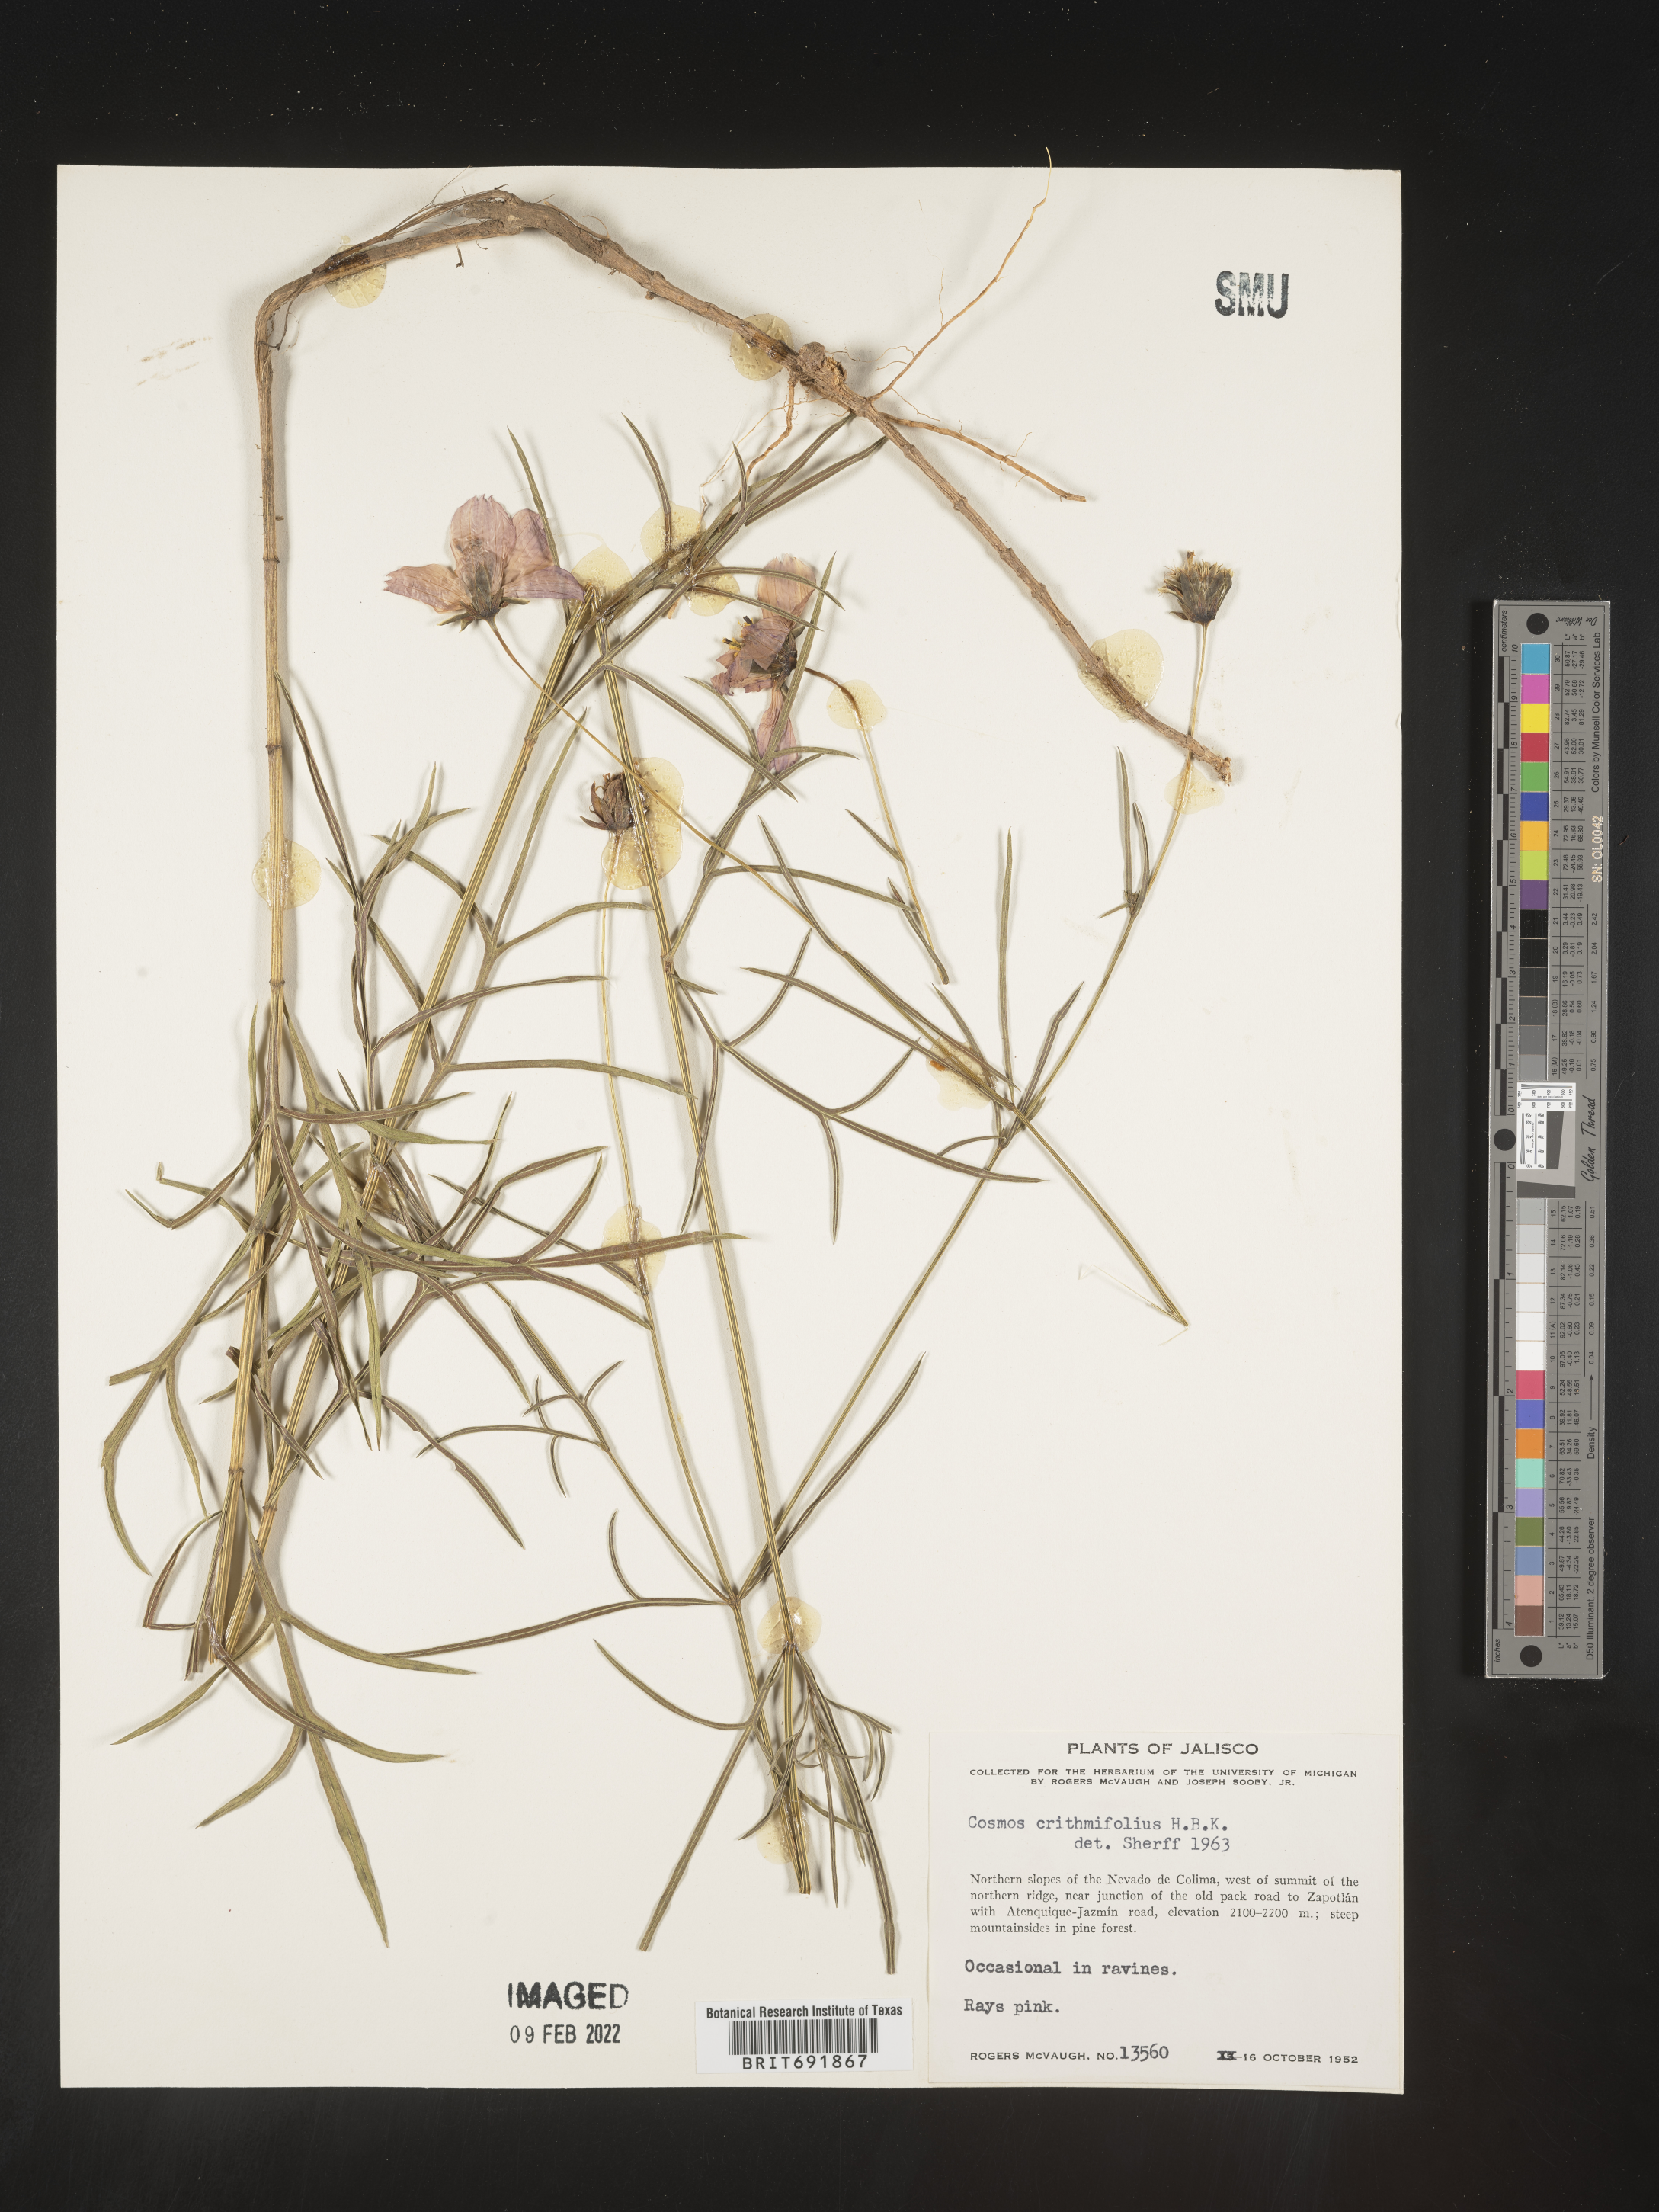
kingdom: Plantae
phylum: Tracheophyta
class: Magnoliopsida
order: Asterales
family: Asteraceae
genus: Cosmos
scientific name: Cosmos
